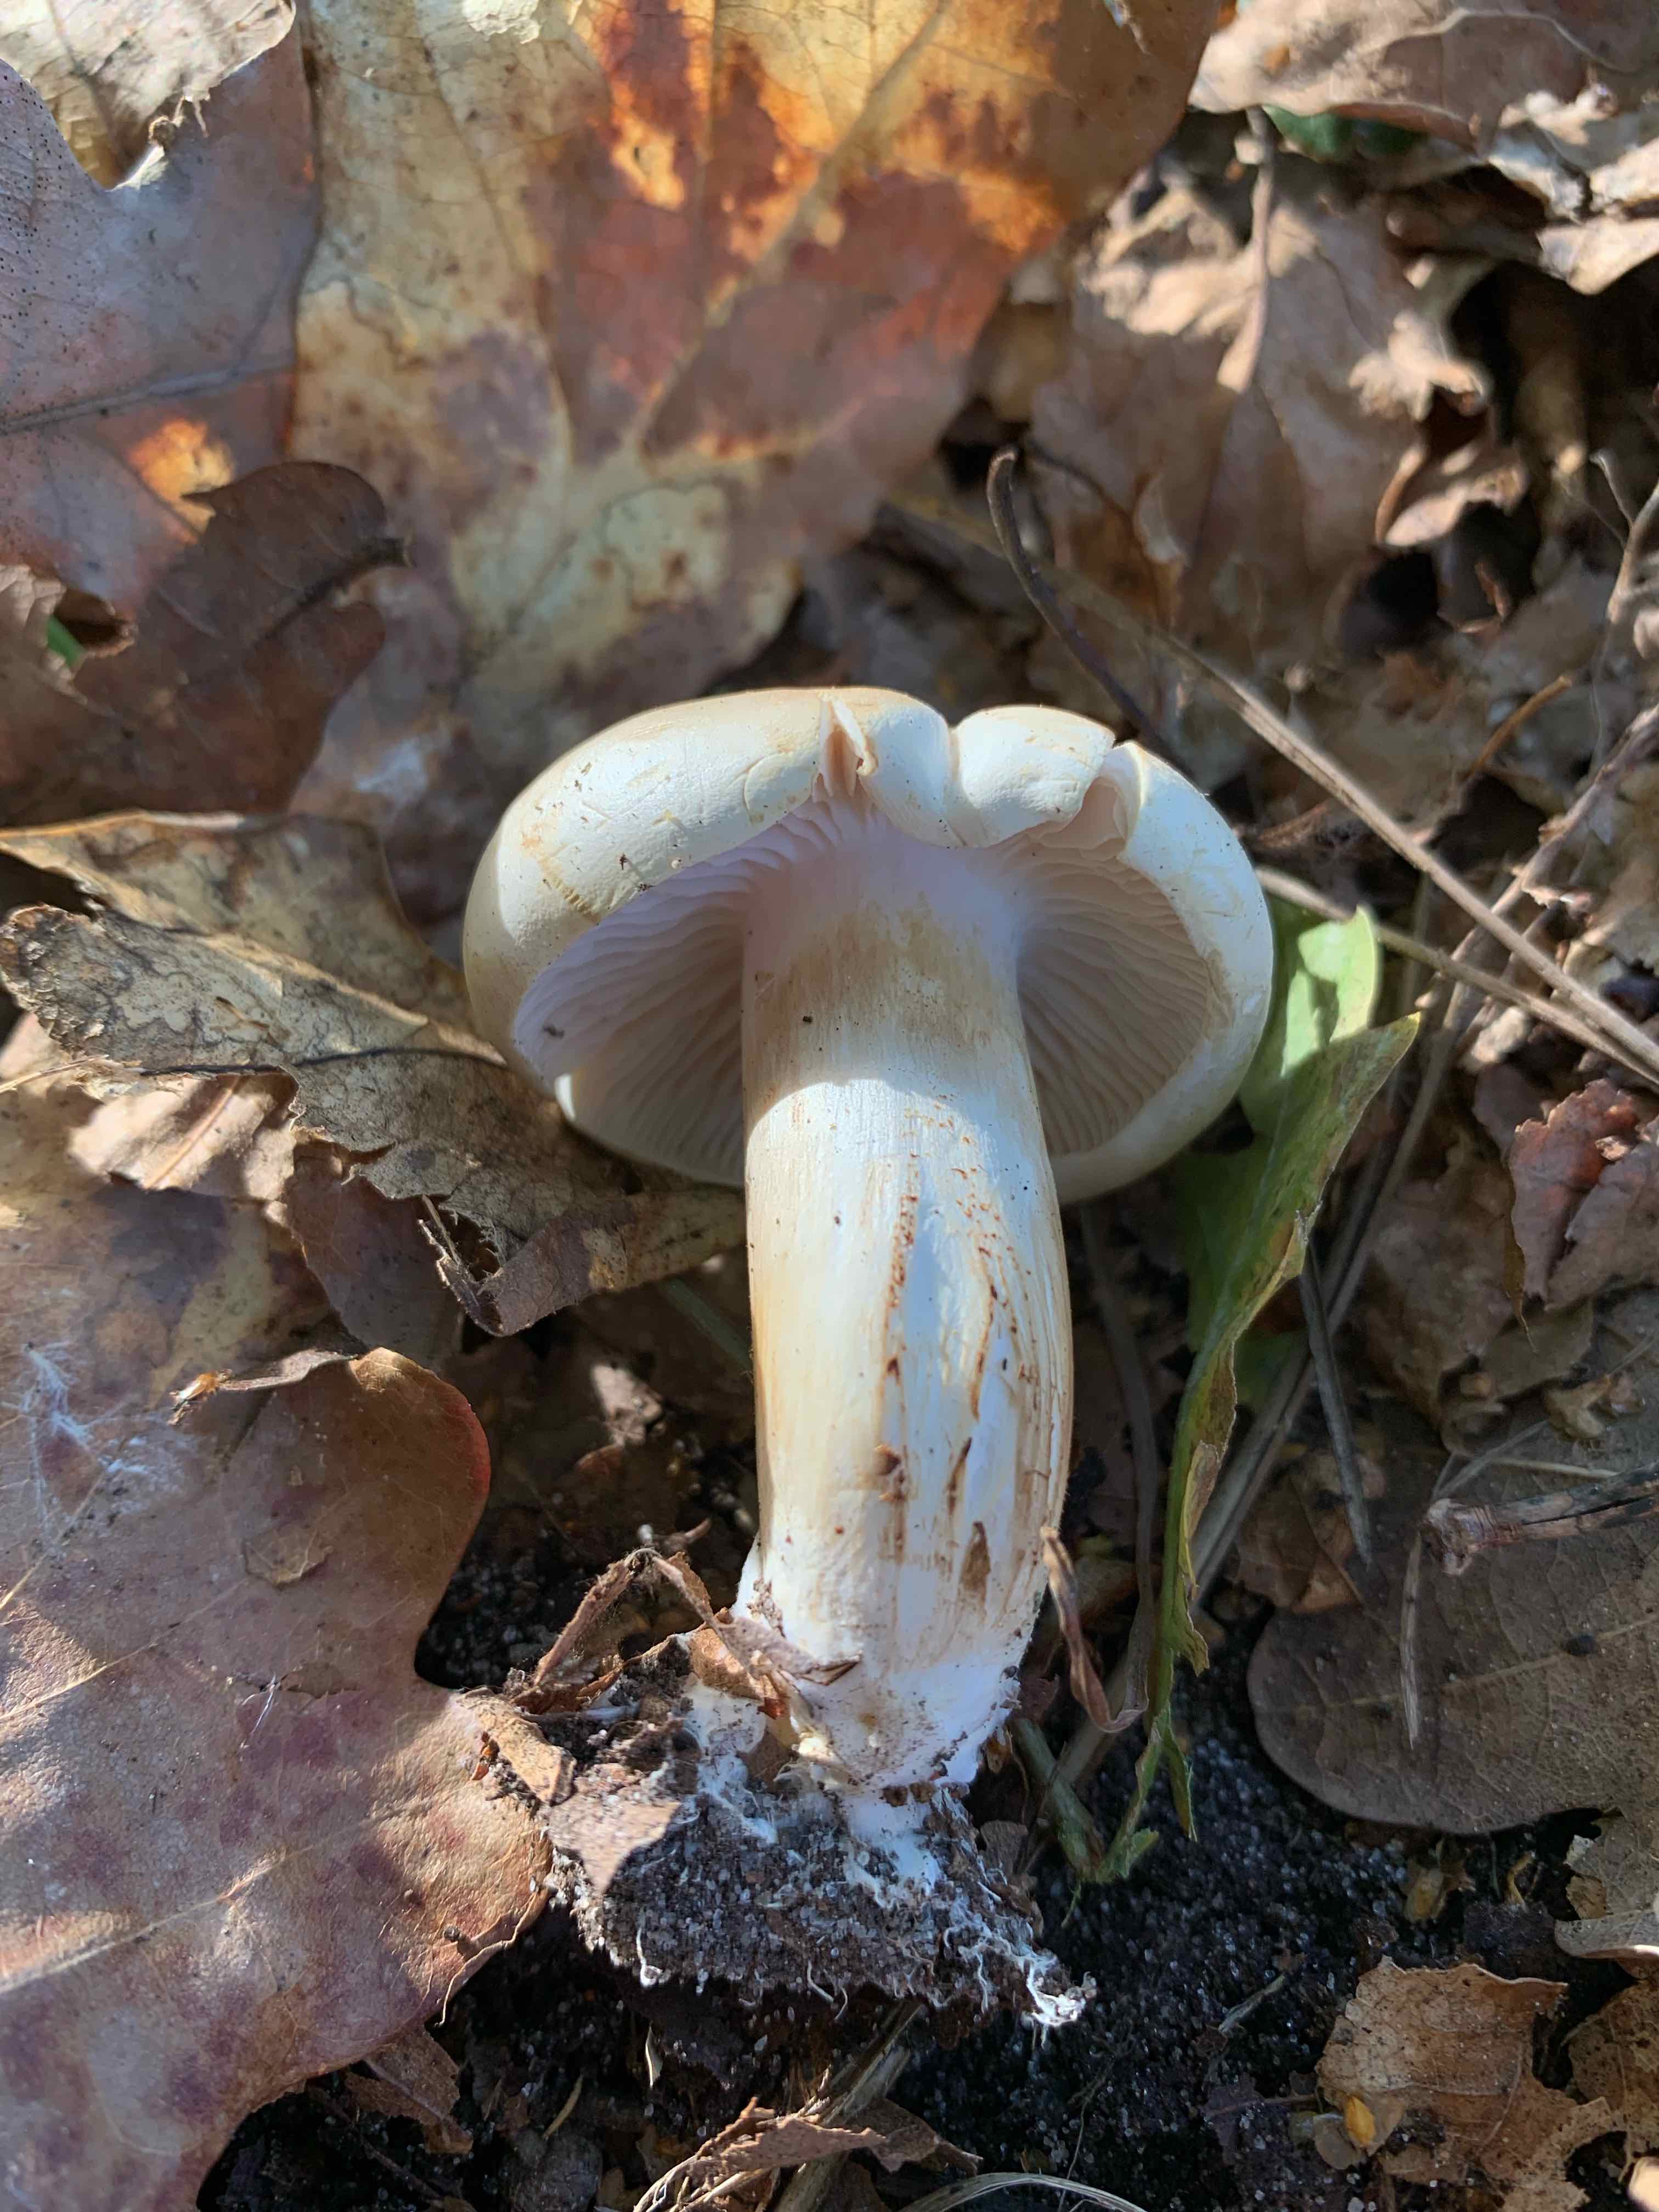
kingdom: Fungi
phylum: Basidiomycota
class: Agaricomycetes
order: Agaricales
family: Tricholomataceae
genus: Tricholoma
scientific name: Tricholoma album
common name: honning-ridderhat
